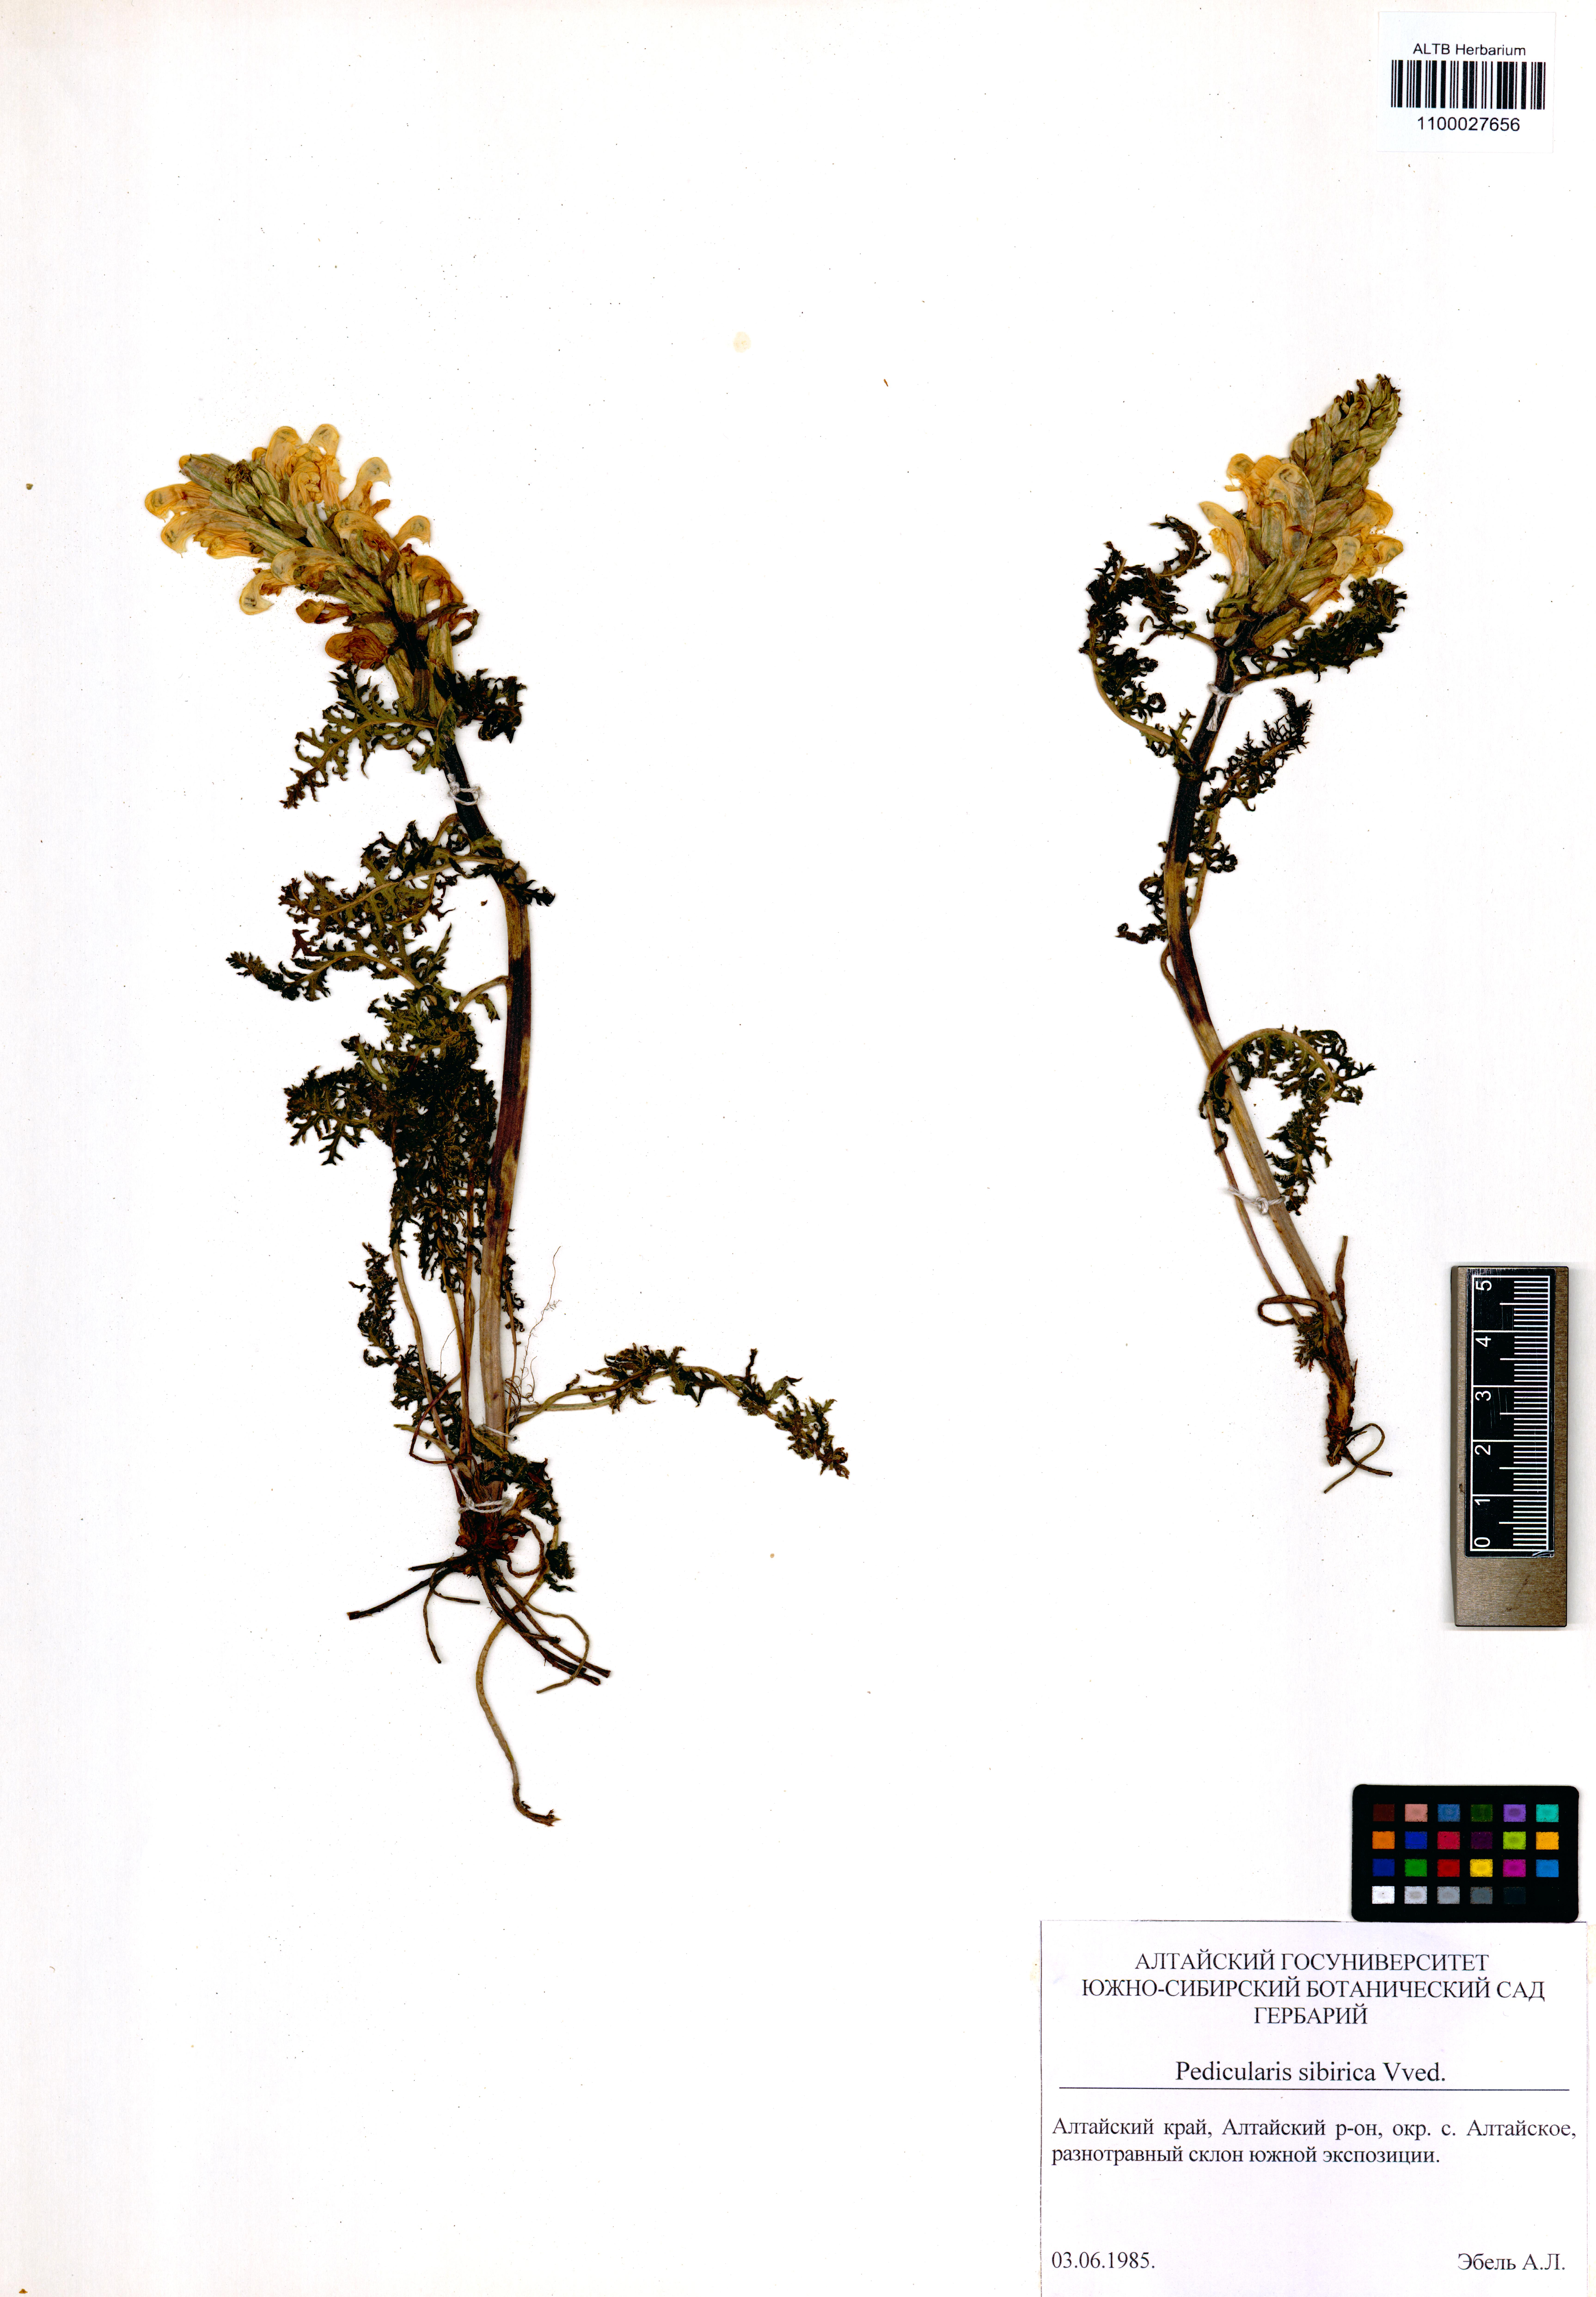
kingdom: Plantae
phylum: Tracheophyta
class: Magnoliopsida
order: Lamiales
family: Orobanchaceae
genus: Pedicularis
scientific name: Pedicularis sibirica
